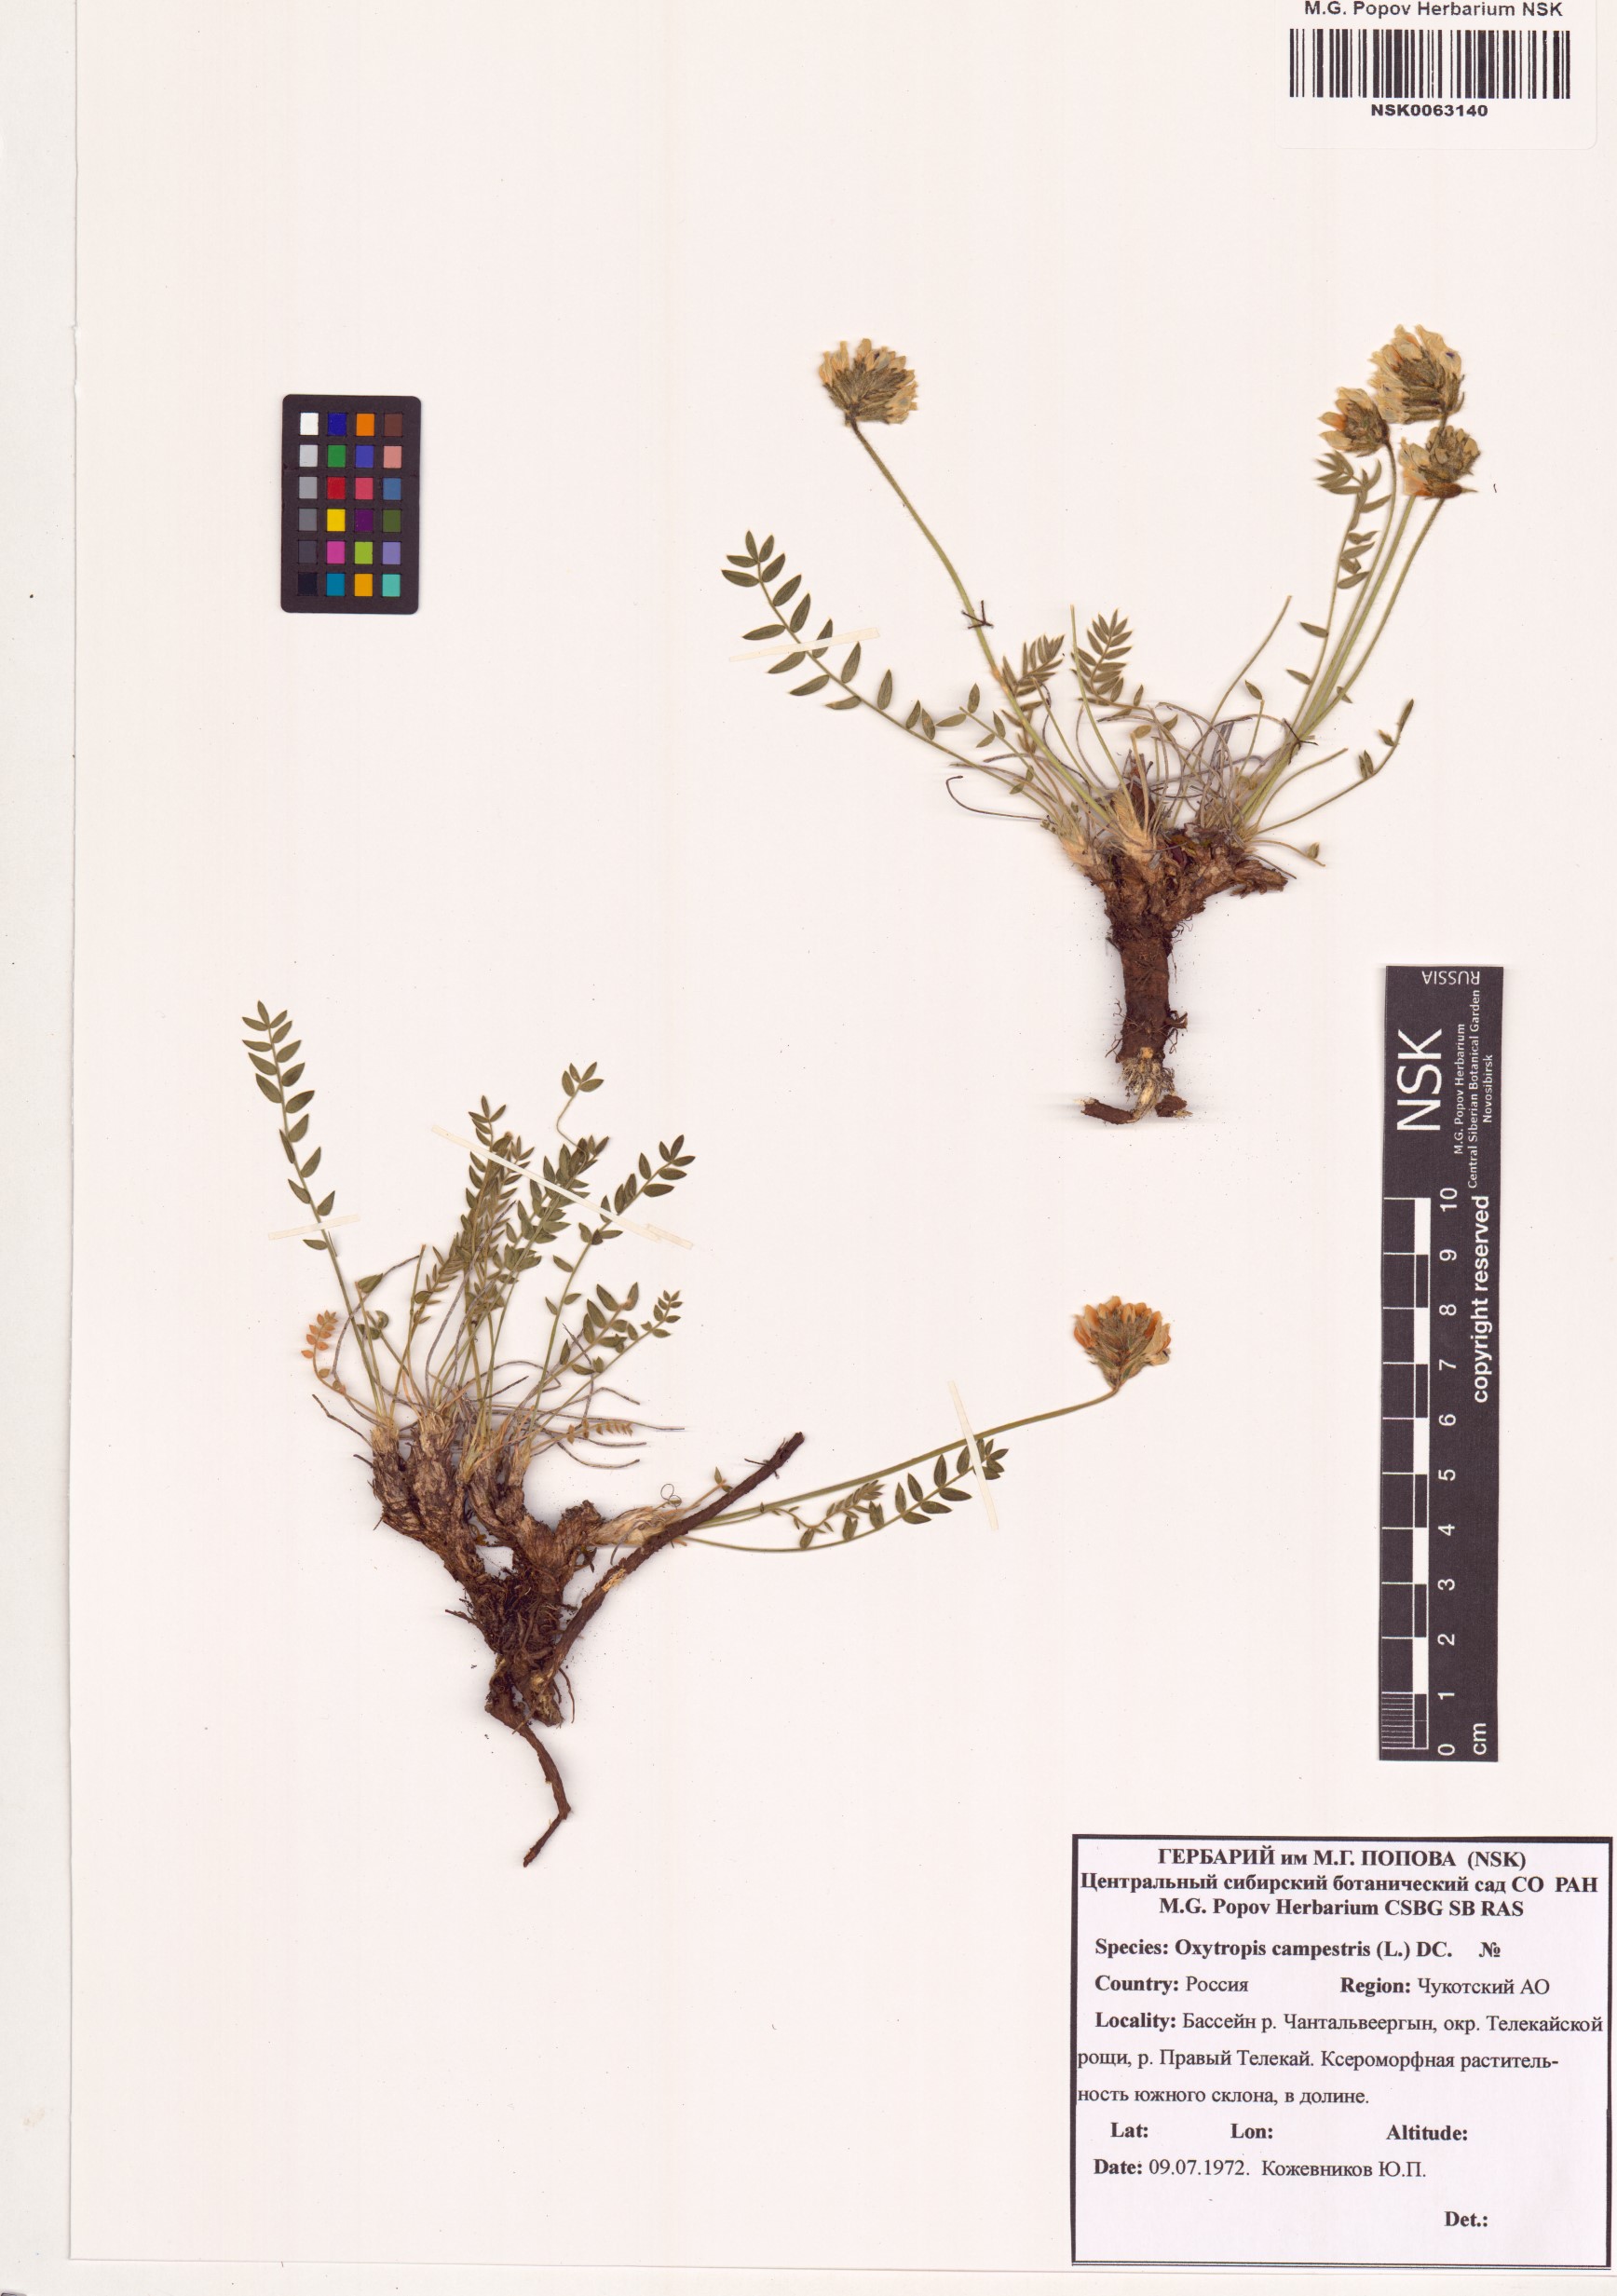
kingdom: Plantae
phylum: Tracheophyta
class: Magnoliopsida
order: Fabales
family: Fabaceae
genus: Oxytropis
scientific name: Oxytropis campestris
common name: Field locoweed
